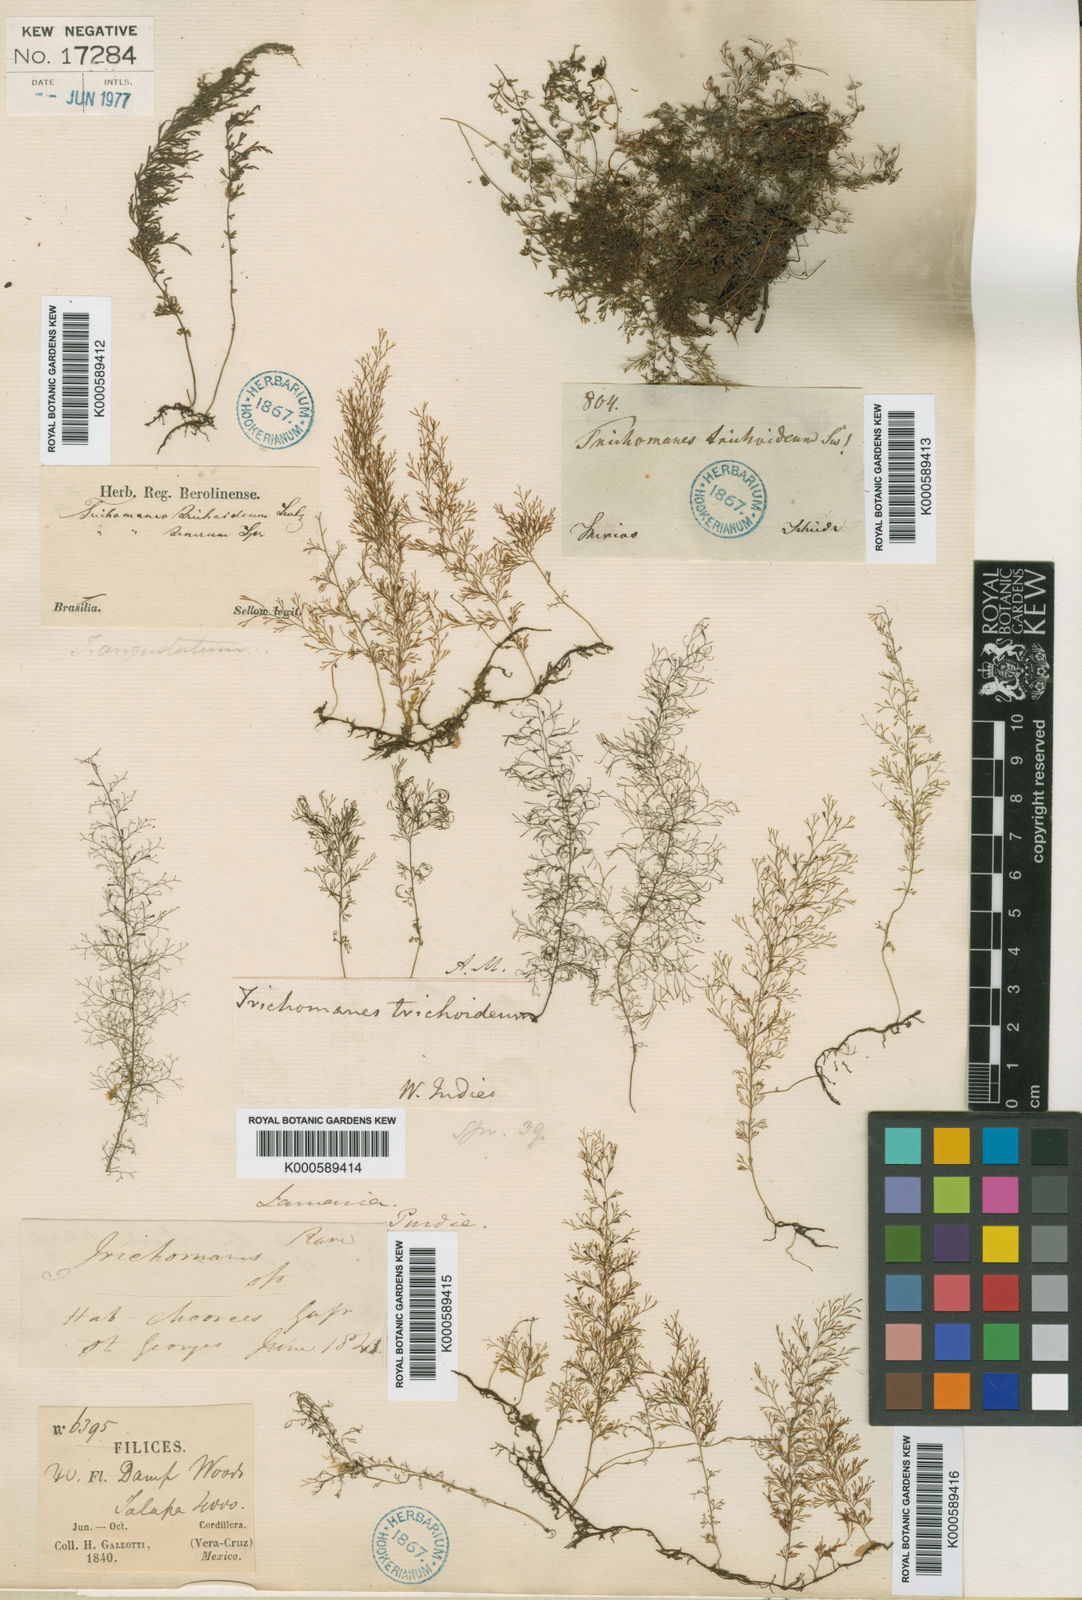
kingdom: Plantae
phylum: Tracheophyta
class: Polypodiopsida
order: Hymenophyllales
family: Hymenophyllaceae
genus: Polyphlebium
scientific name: Polyphlebium capillaceum
